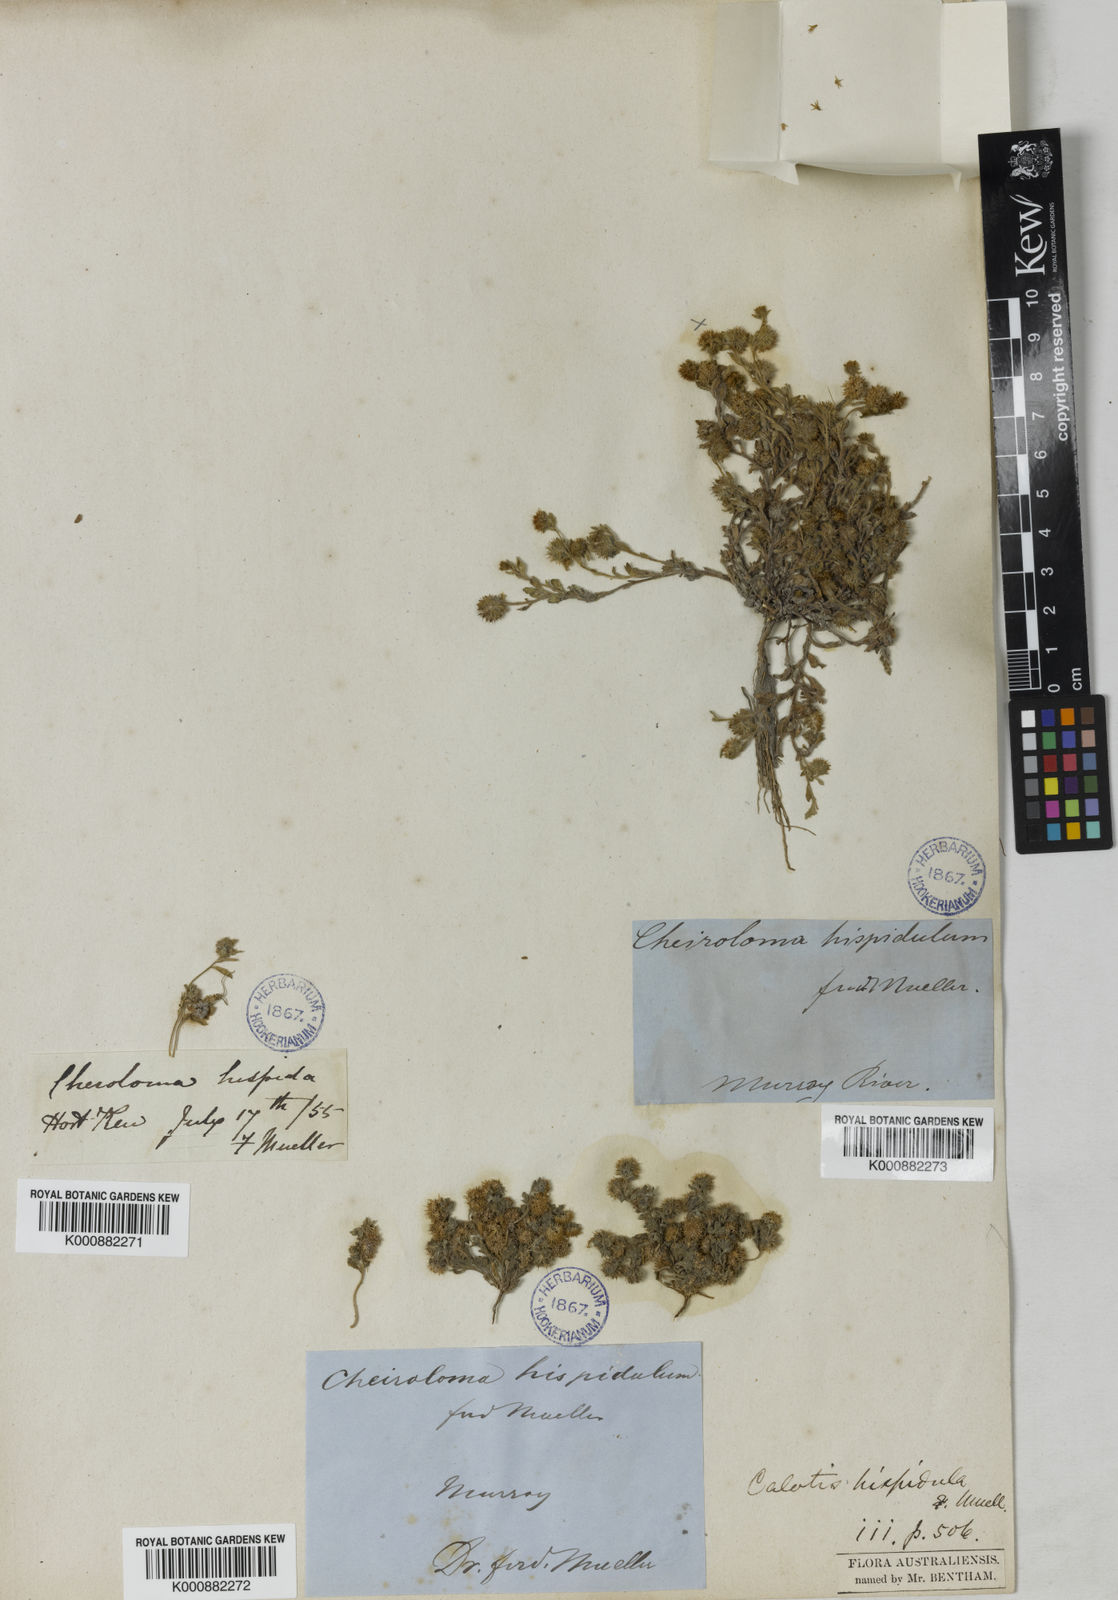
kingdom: Plantae
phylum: Tracheophyta
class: Magnoliopsida
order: Asterales
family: Asteraceae
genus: Calotis
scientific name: Calotis hispidula
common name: Bogan-flea
